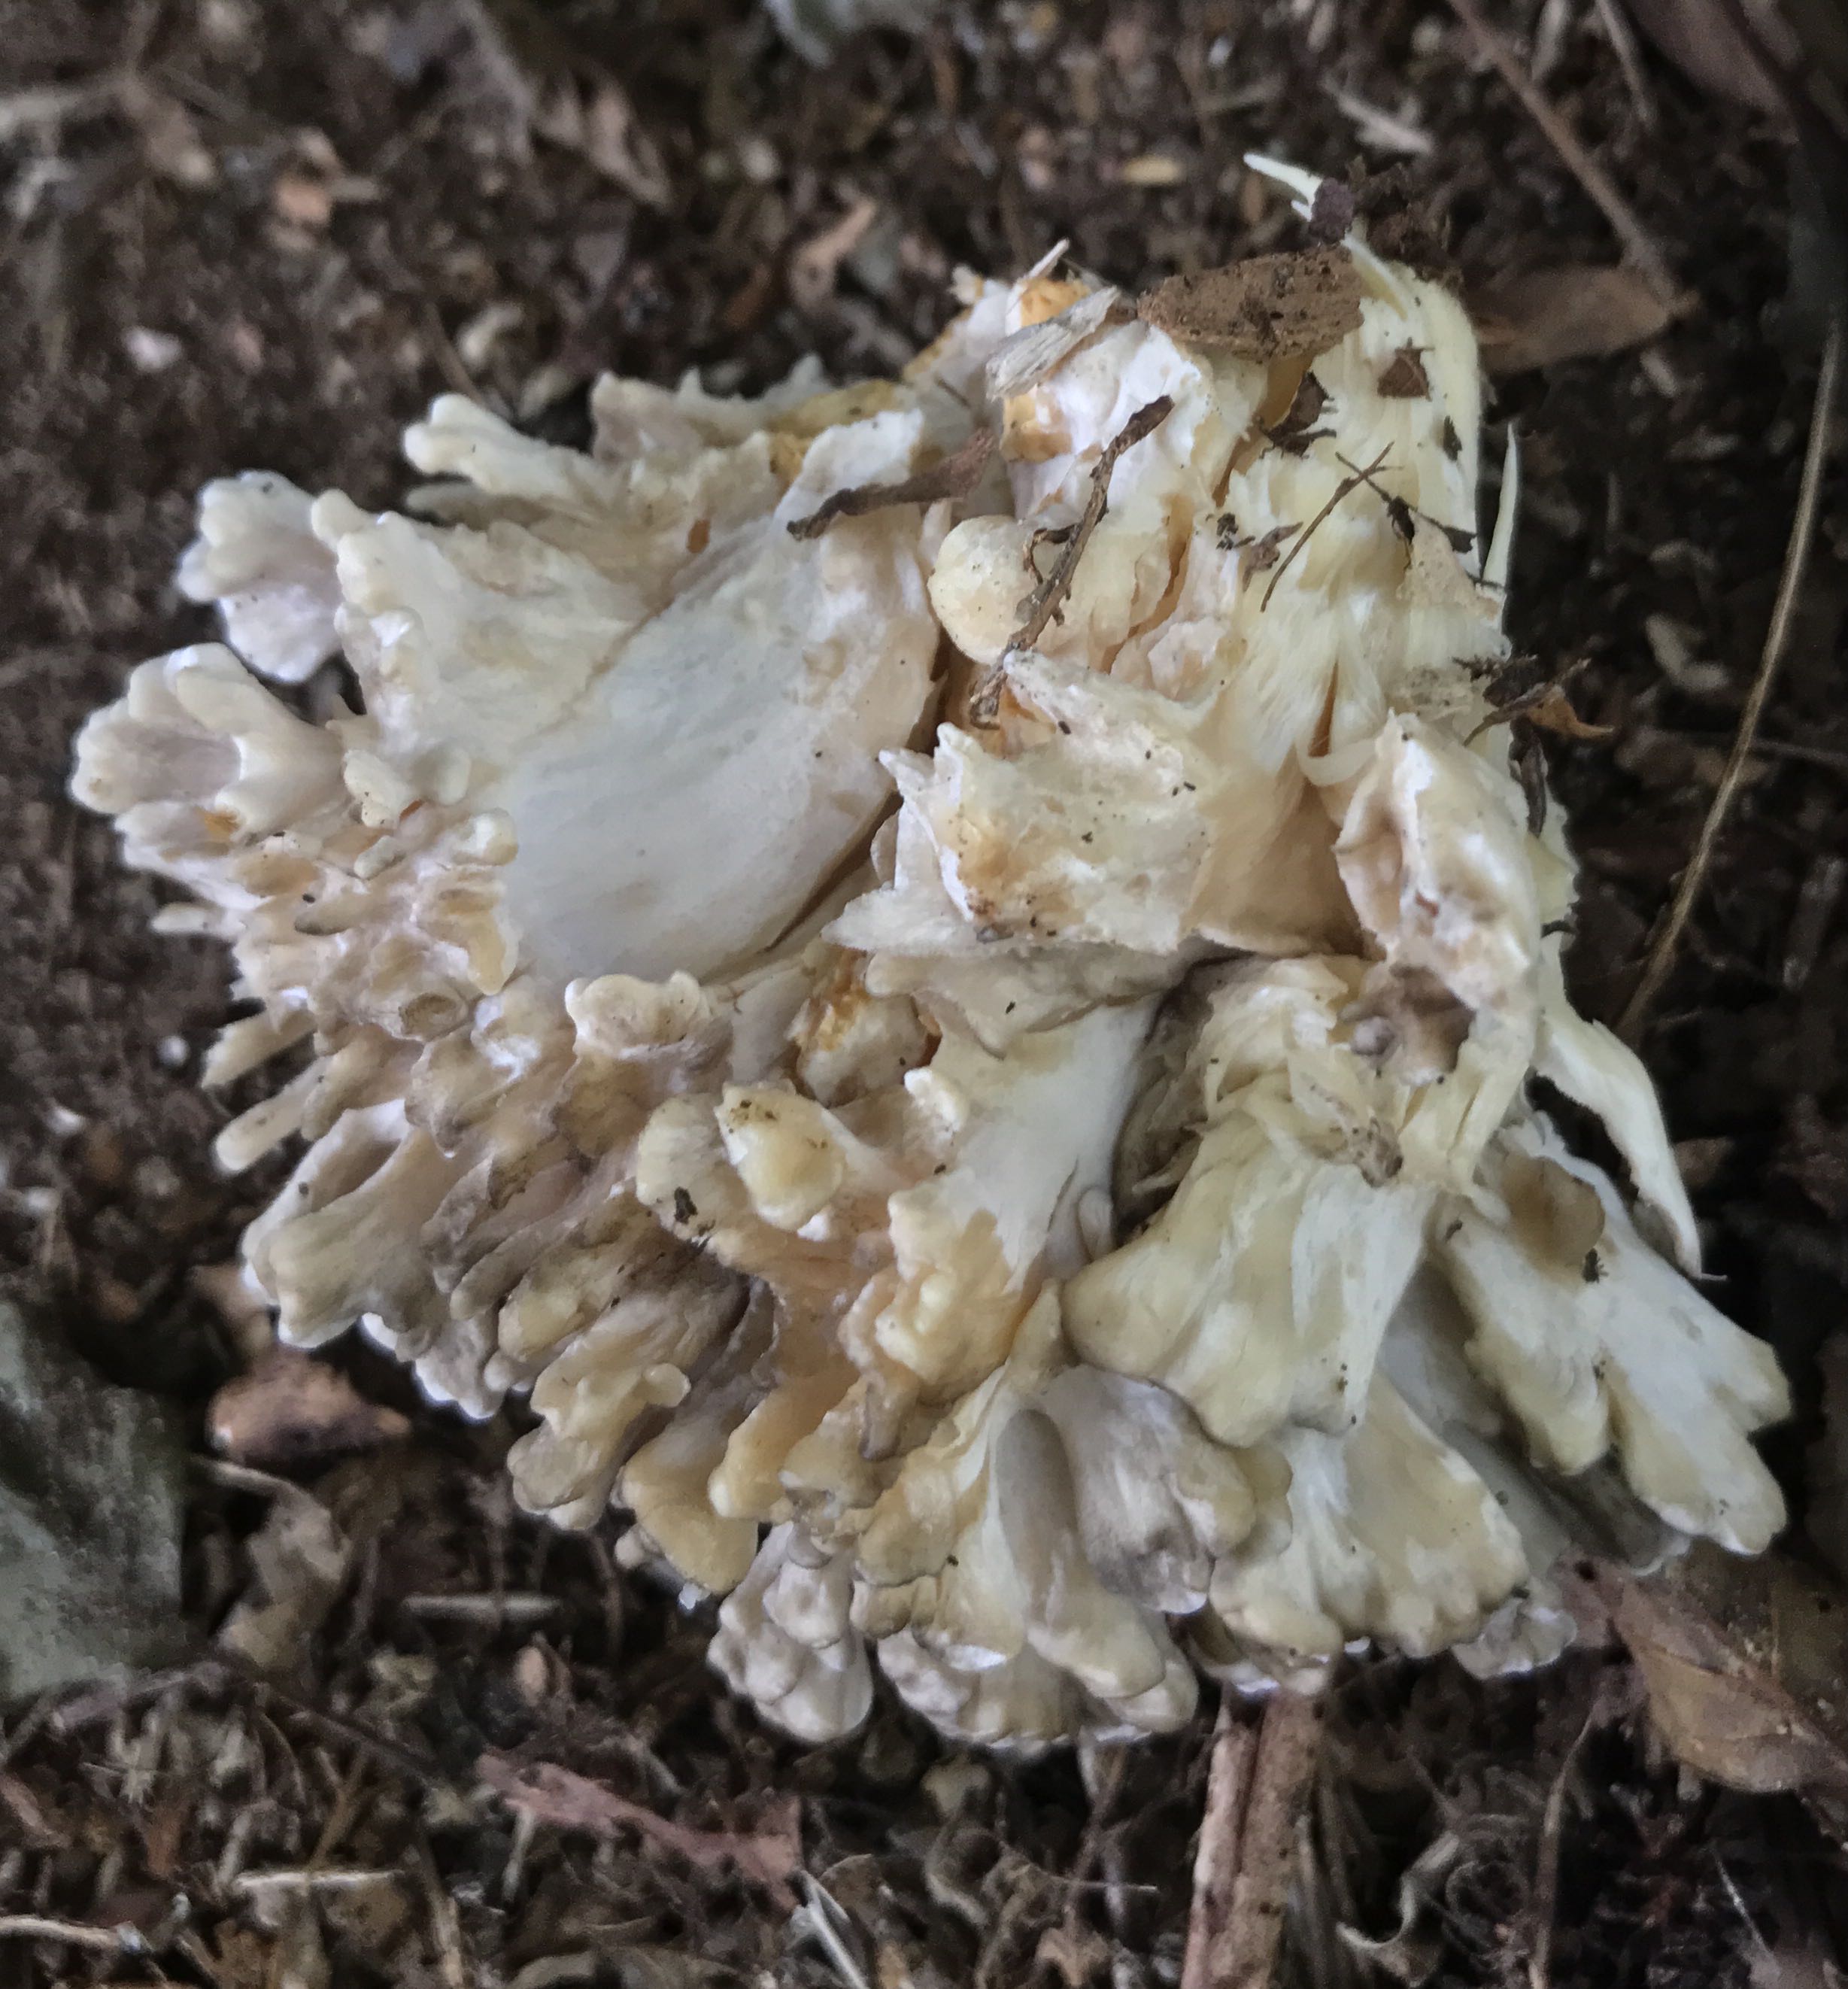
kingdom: Fungi
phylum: Basidiomycota
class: Agaricomycetes
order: Polyporales
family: Grifolaceae
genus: Grifola
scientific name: Grifola frondosa
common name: tueporesvamp
